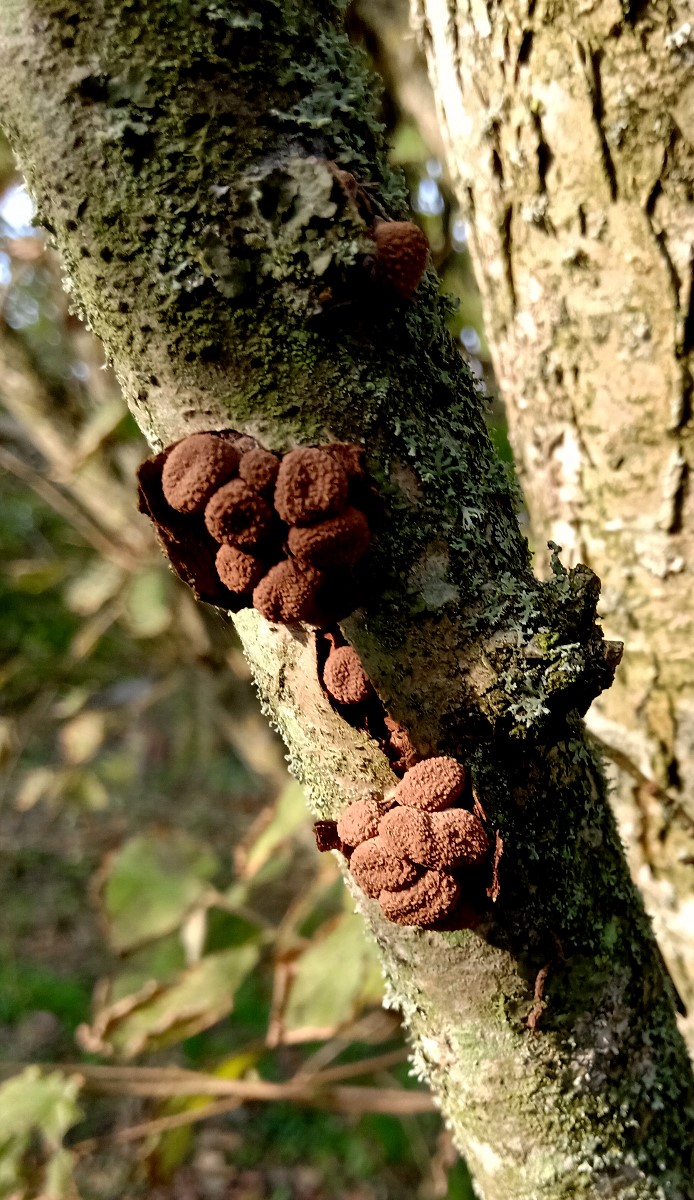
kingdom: Fungi
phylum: Ascomycota
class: Leotiomycetes
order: Helotiales
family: Cenangiaceae
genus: Encoelia
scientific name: Encoelia furfuracea
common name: hassel-læderskive
